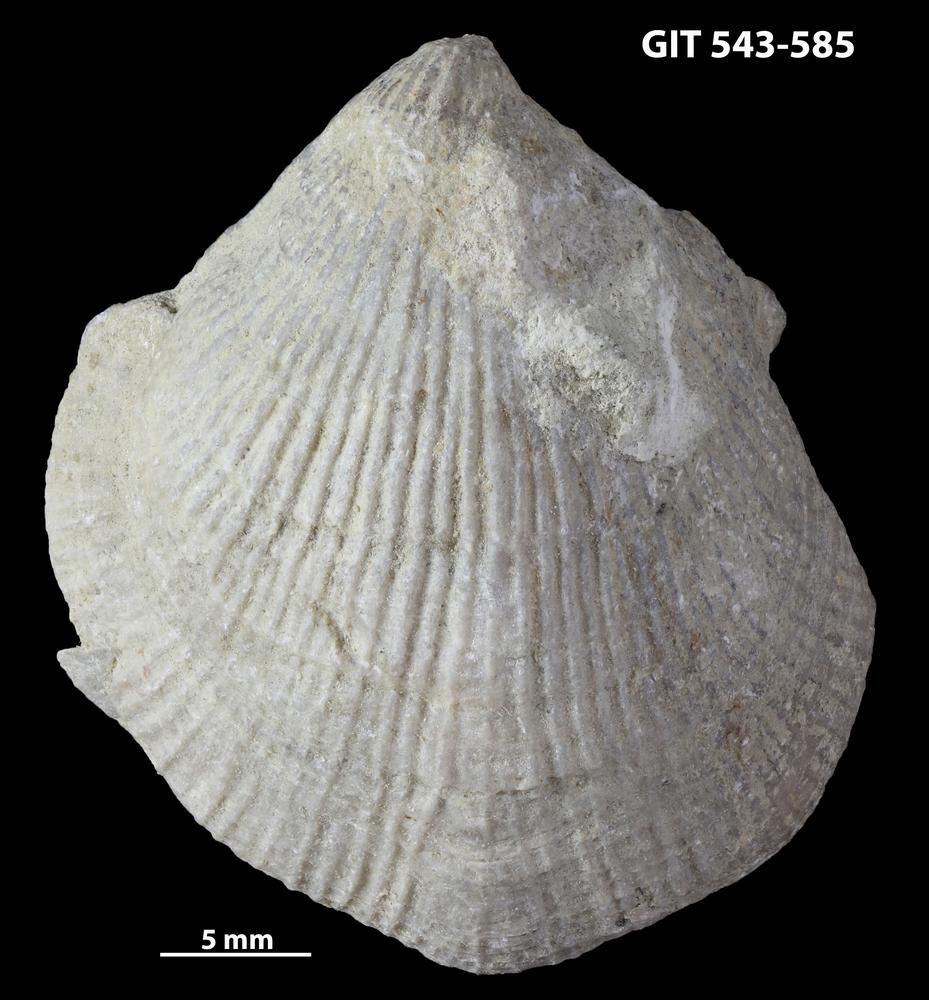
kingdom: Animalia
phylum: Brachiopoda
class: Rhynchonellata
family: Clitambonitidae
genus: Vellamo
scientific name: Vellamo Orthis verneuili
